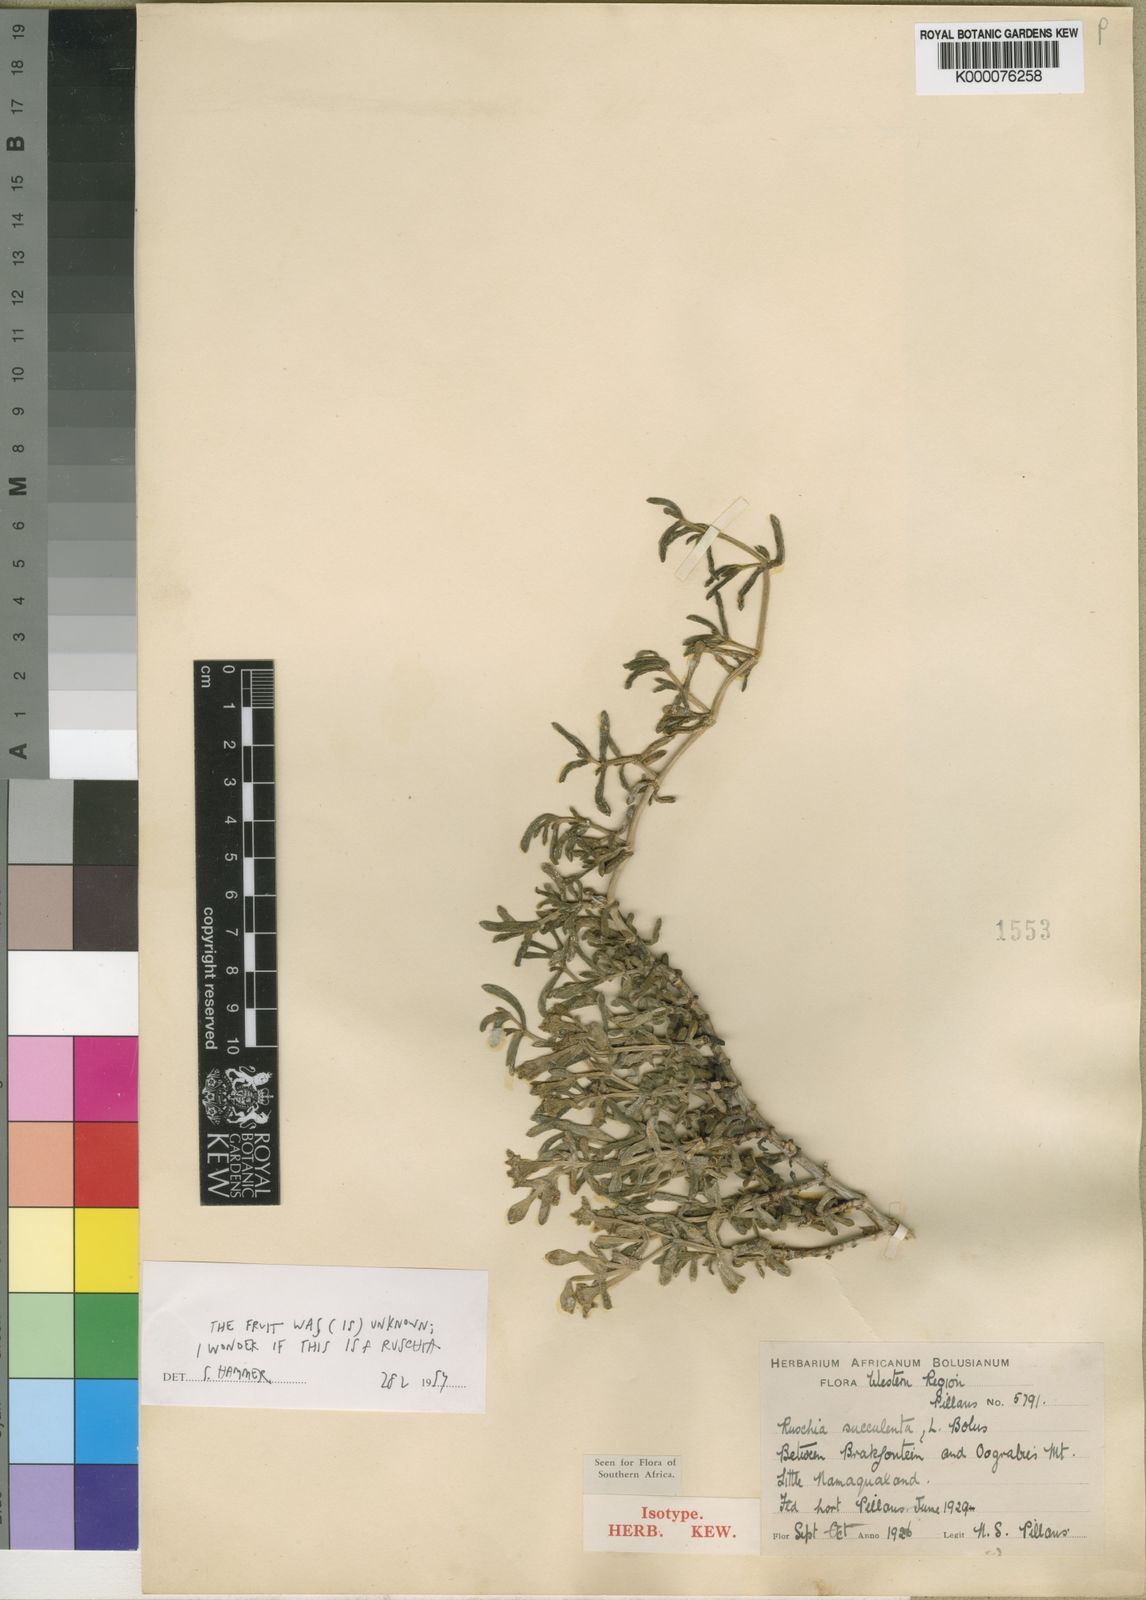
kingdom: Plantae
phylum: Tracheophyta
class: Magnoliopsida
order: Caryophyllales
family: Aizoaceae
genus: Amphibolia
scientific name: Amphibolia succulenta
